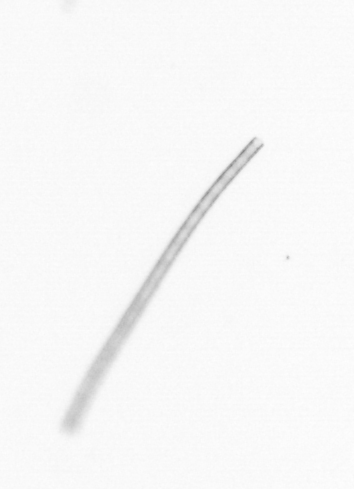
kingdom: Chromista
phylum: Ochrophyta
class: Bacillariophyceae
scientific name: Bacillariophyceae
